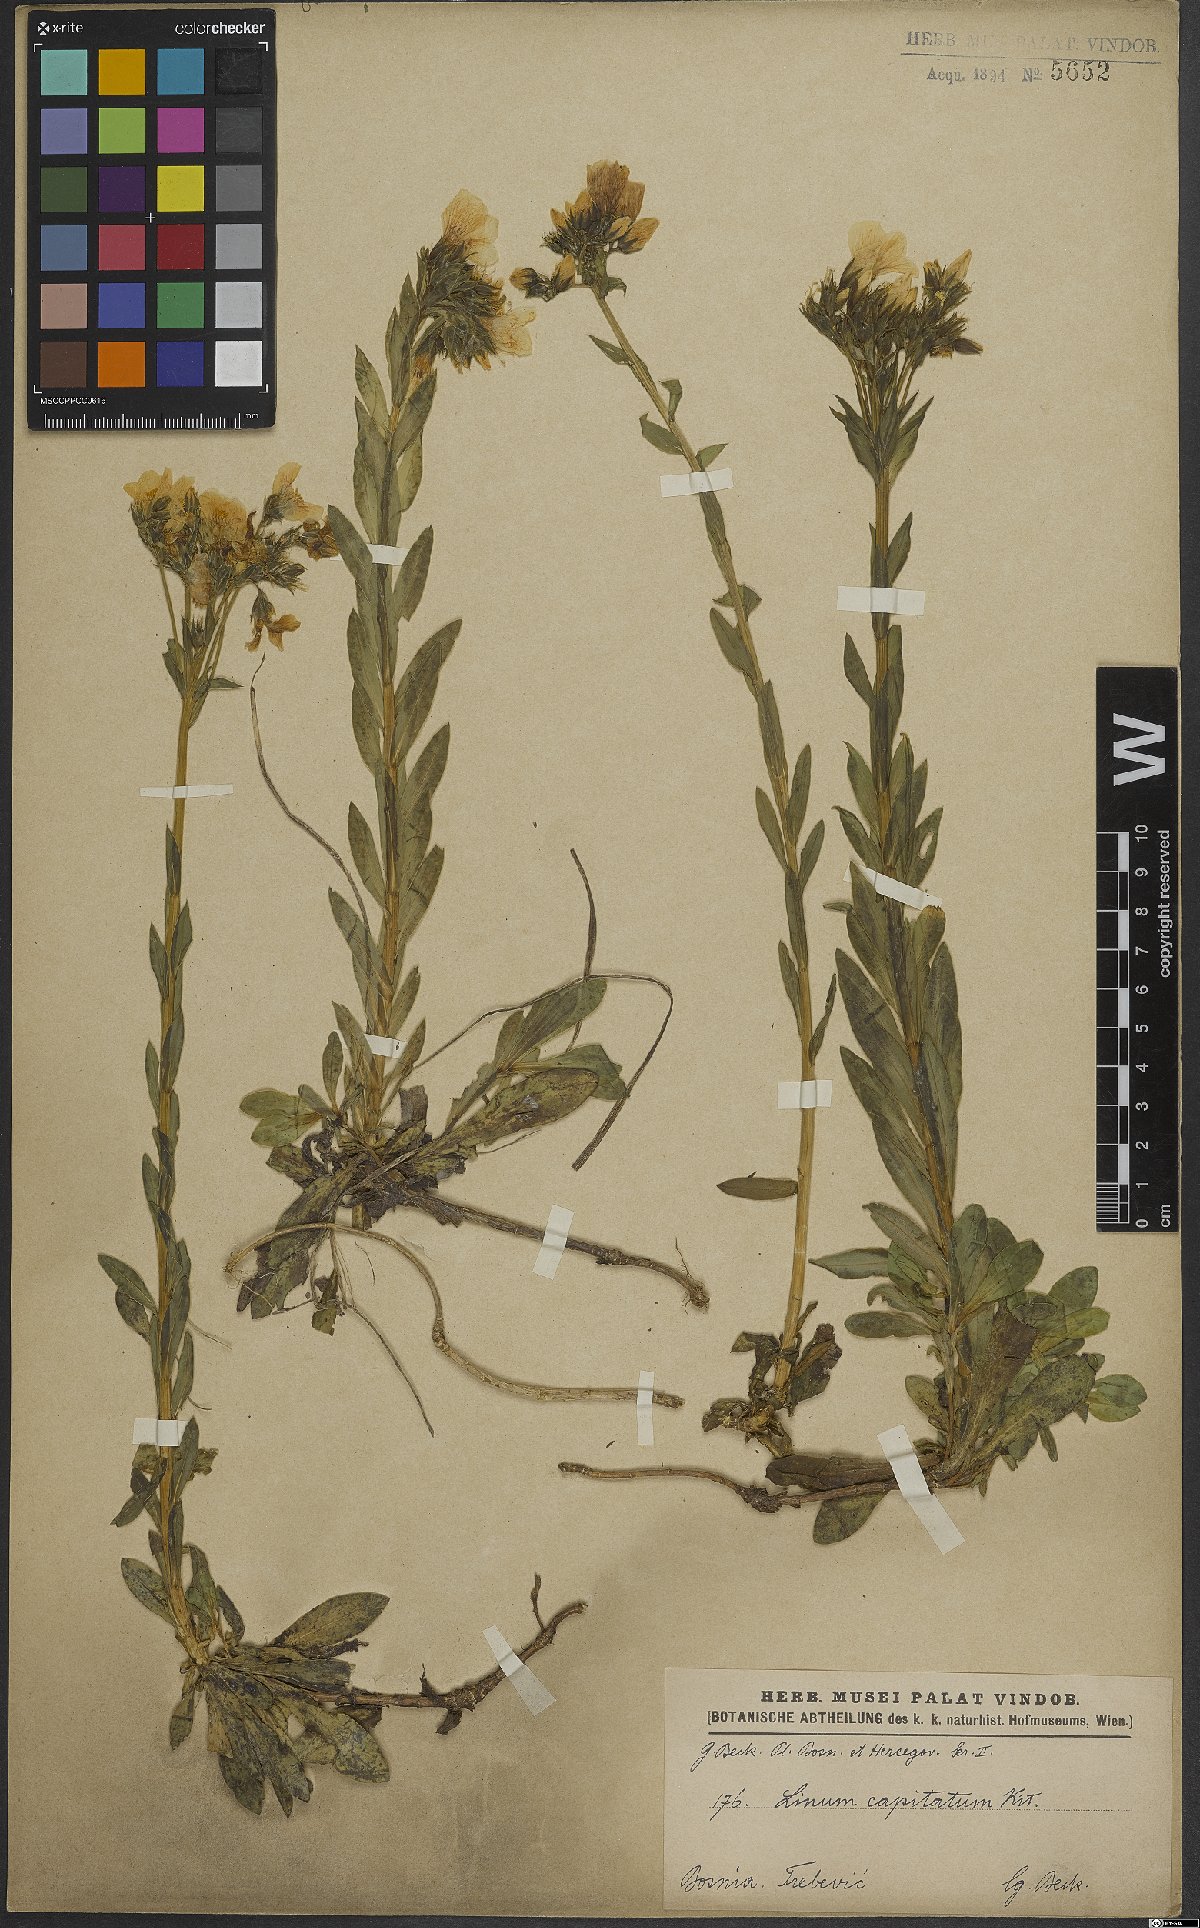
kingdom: Plantae
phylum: Tracheophyta
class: Magnoliopsida
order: Malpighiales
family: Linaceae
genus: Linum
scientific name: Linum capitatum
